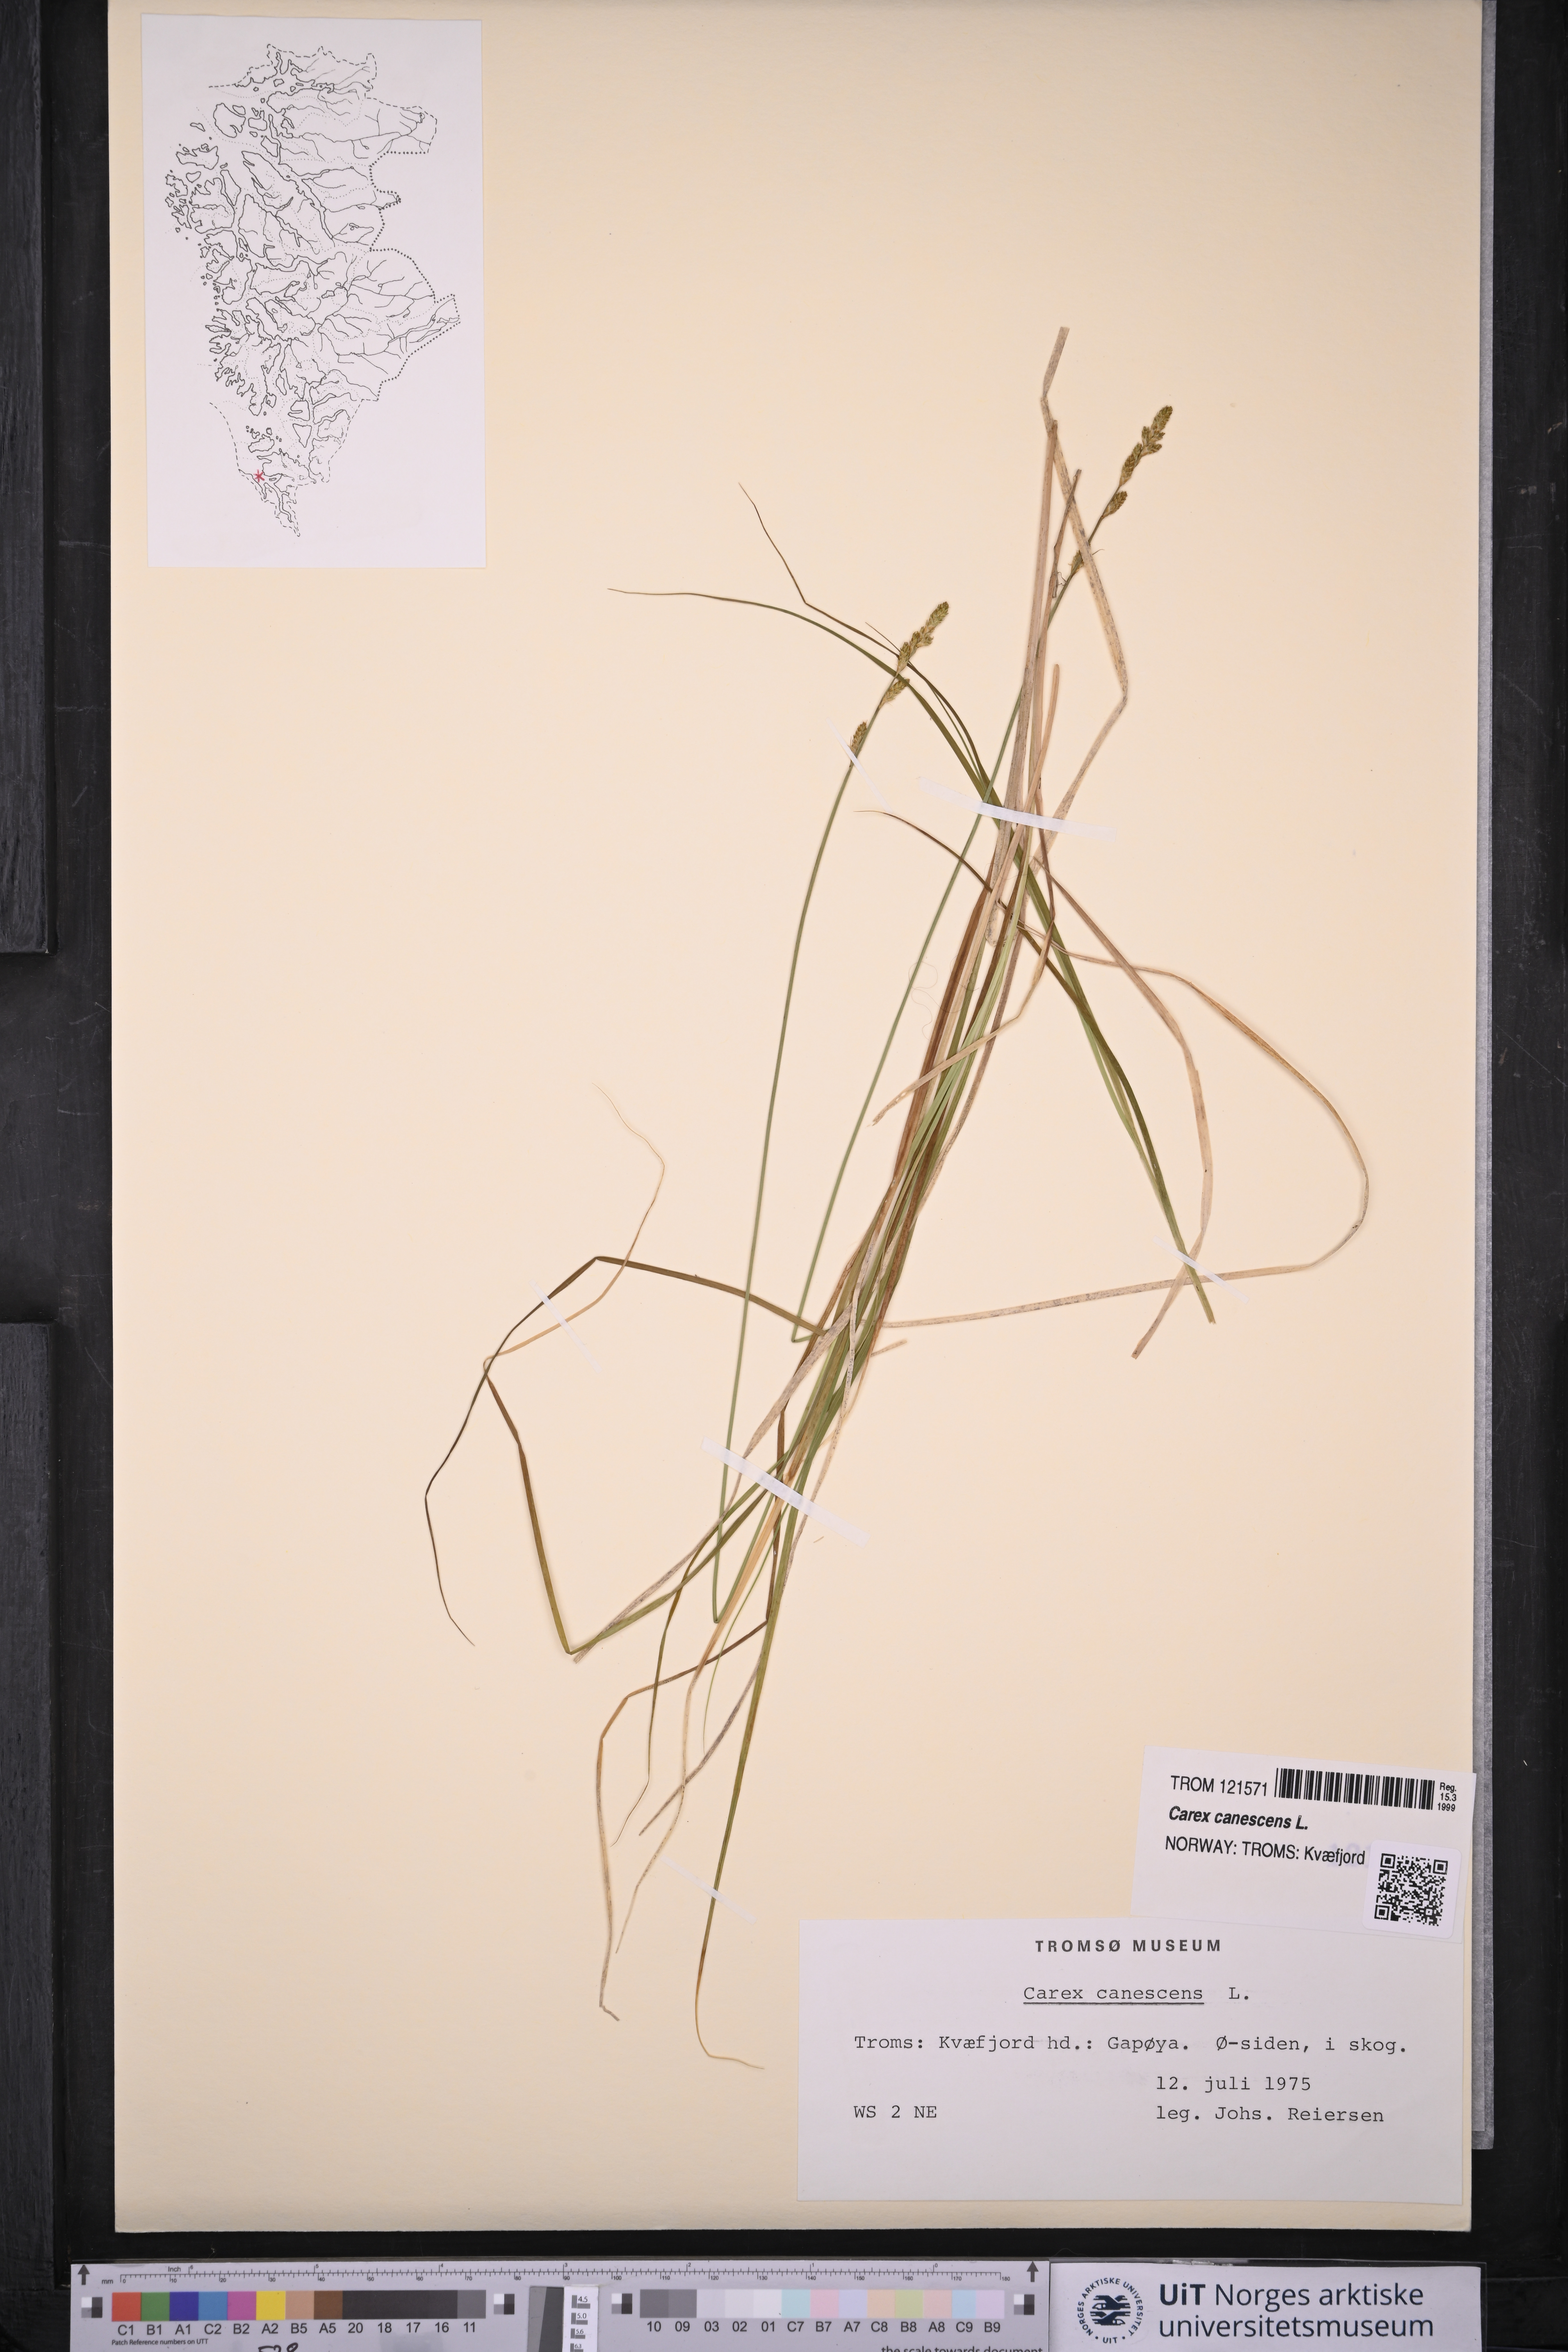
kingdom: Plantae
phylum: Tracheophyta
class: Liliopsida
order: Poales
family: Cyperaceae
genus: Carex
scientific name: Carex canescens
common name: White sedge
